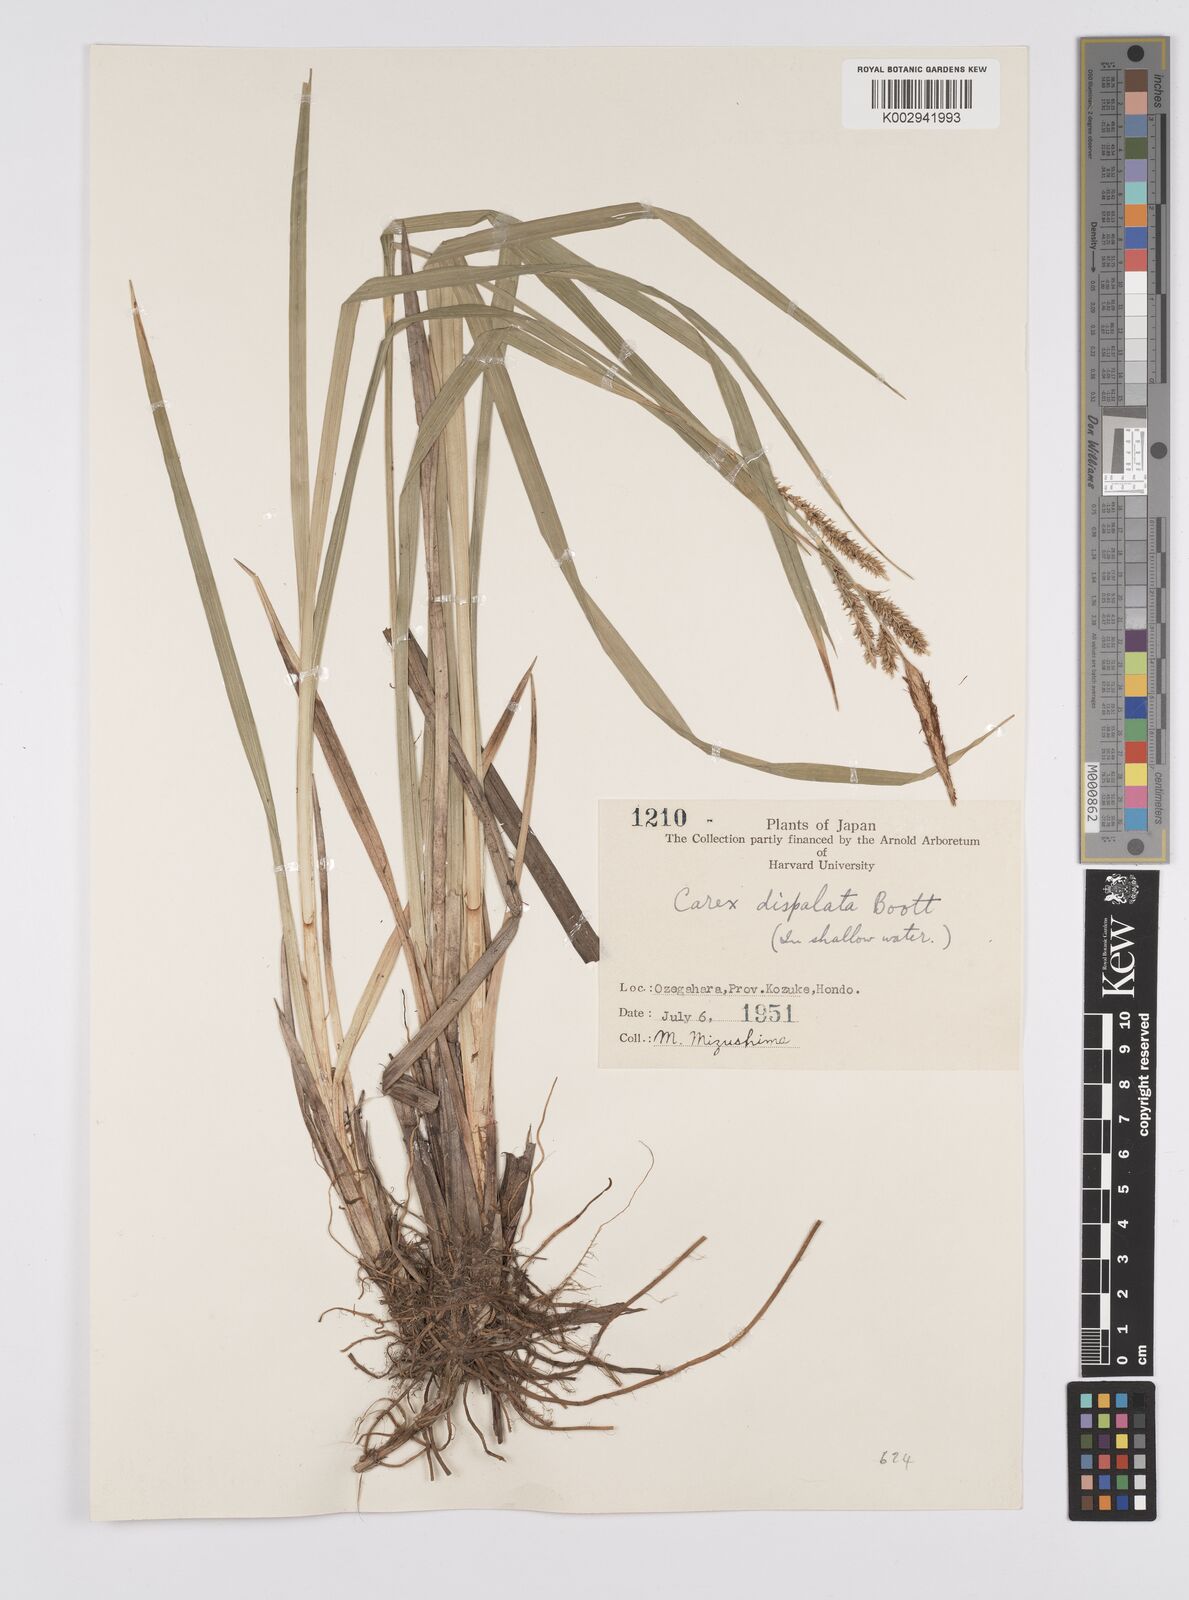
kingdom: Plantae
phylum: Tracheophyta
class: Liliopsida
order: Poales
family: Cyperaceae
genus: Carex
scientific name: Carex dispalata
